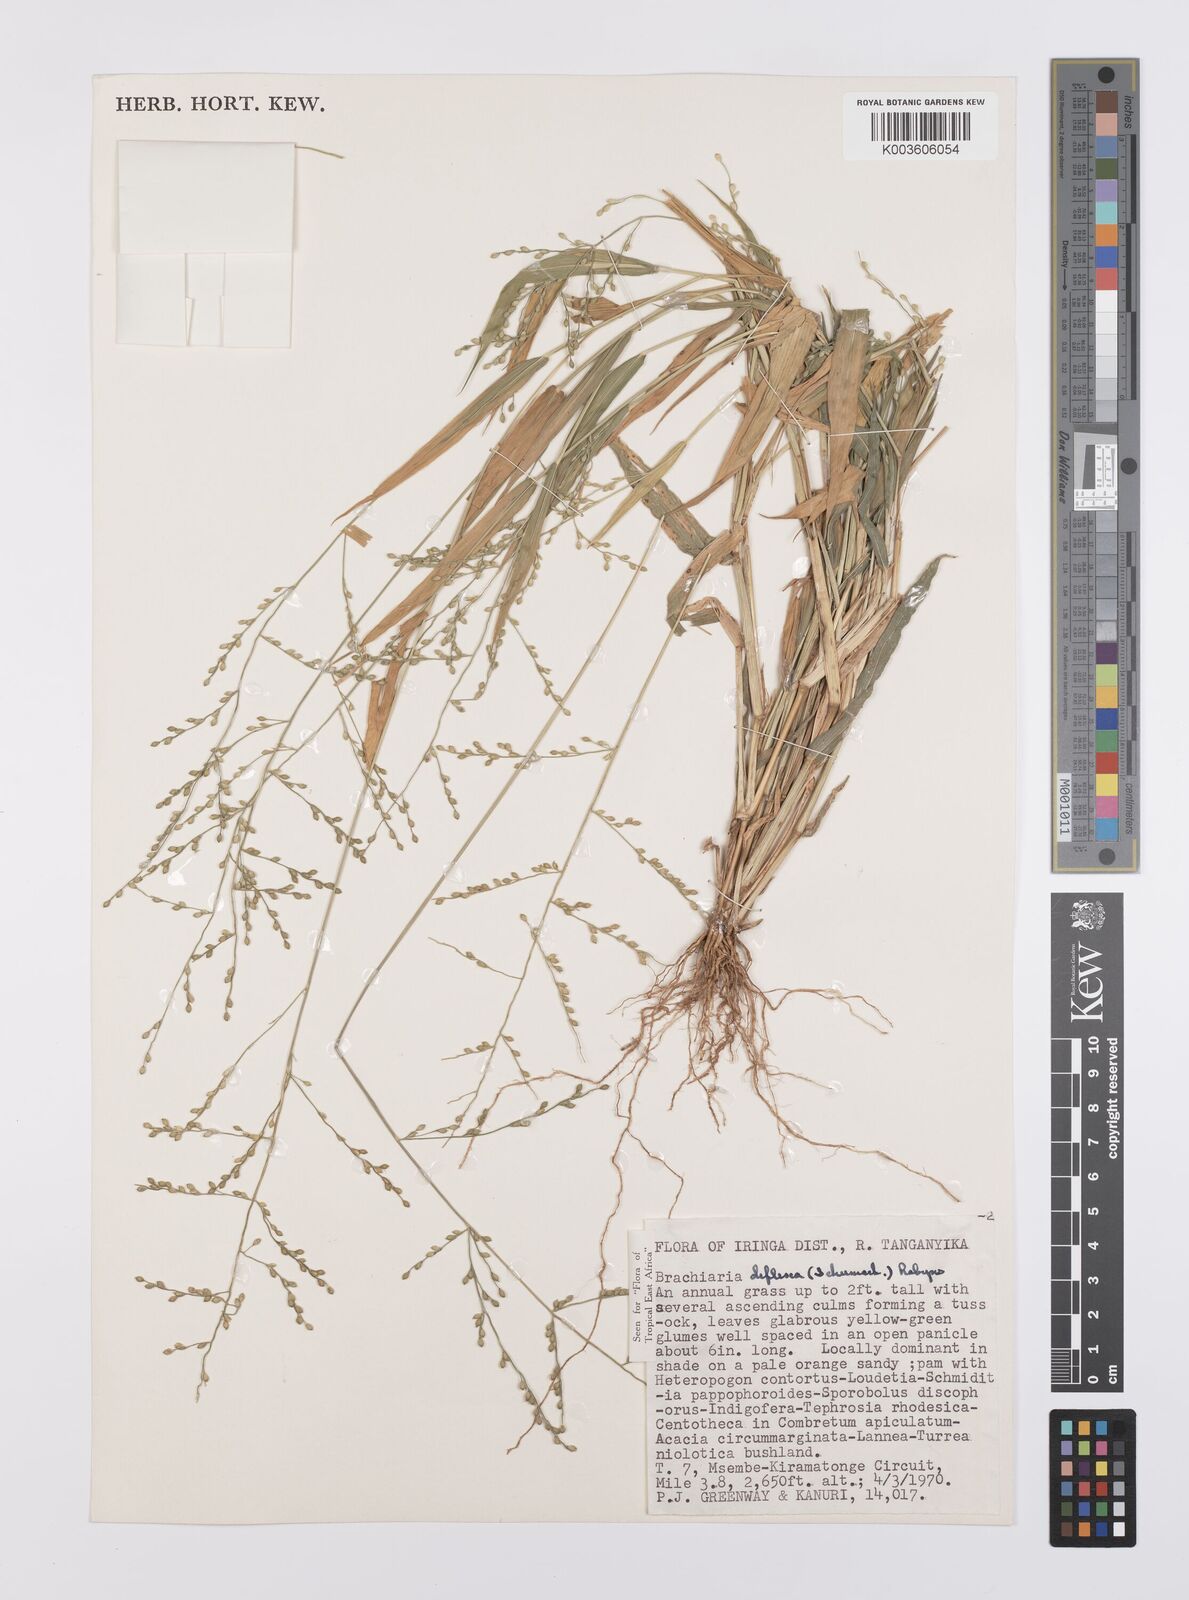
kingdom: Plantae
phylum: Tracheophyta
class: Liliopsida
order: Poales
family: Poaceae
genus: Urochloa
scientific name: Urochloa deflexa
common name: Guinea millet
